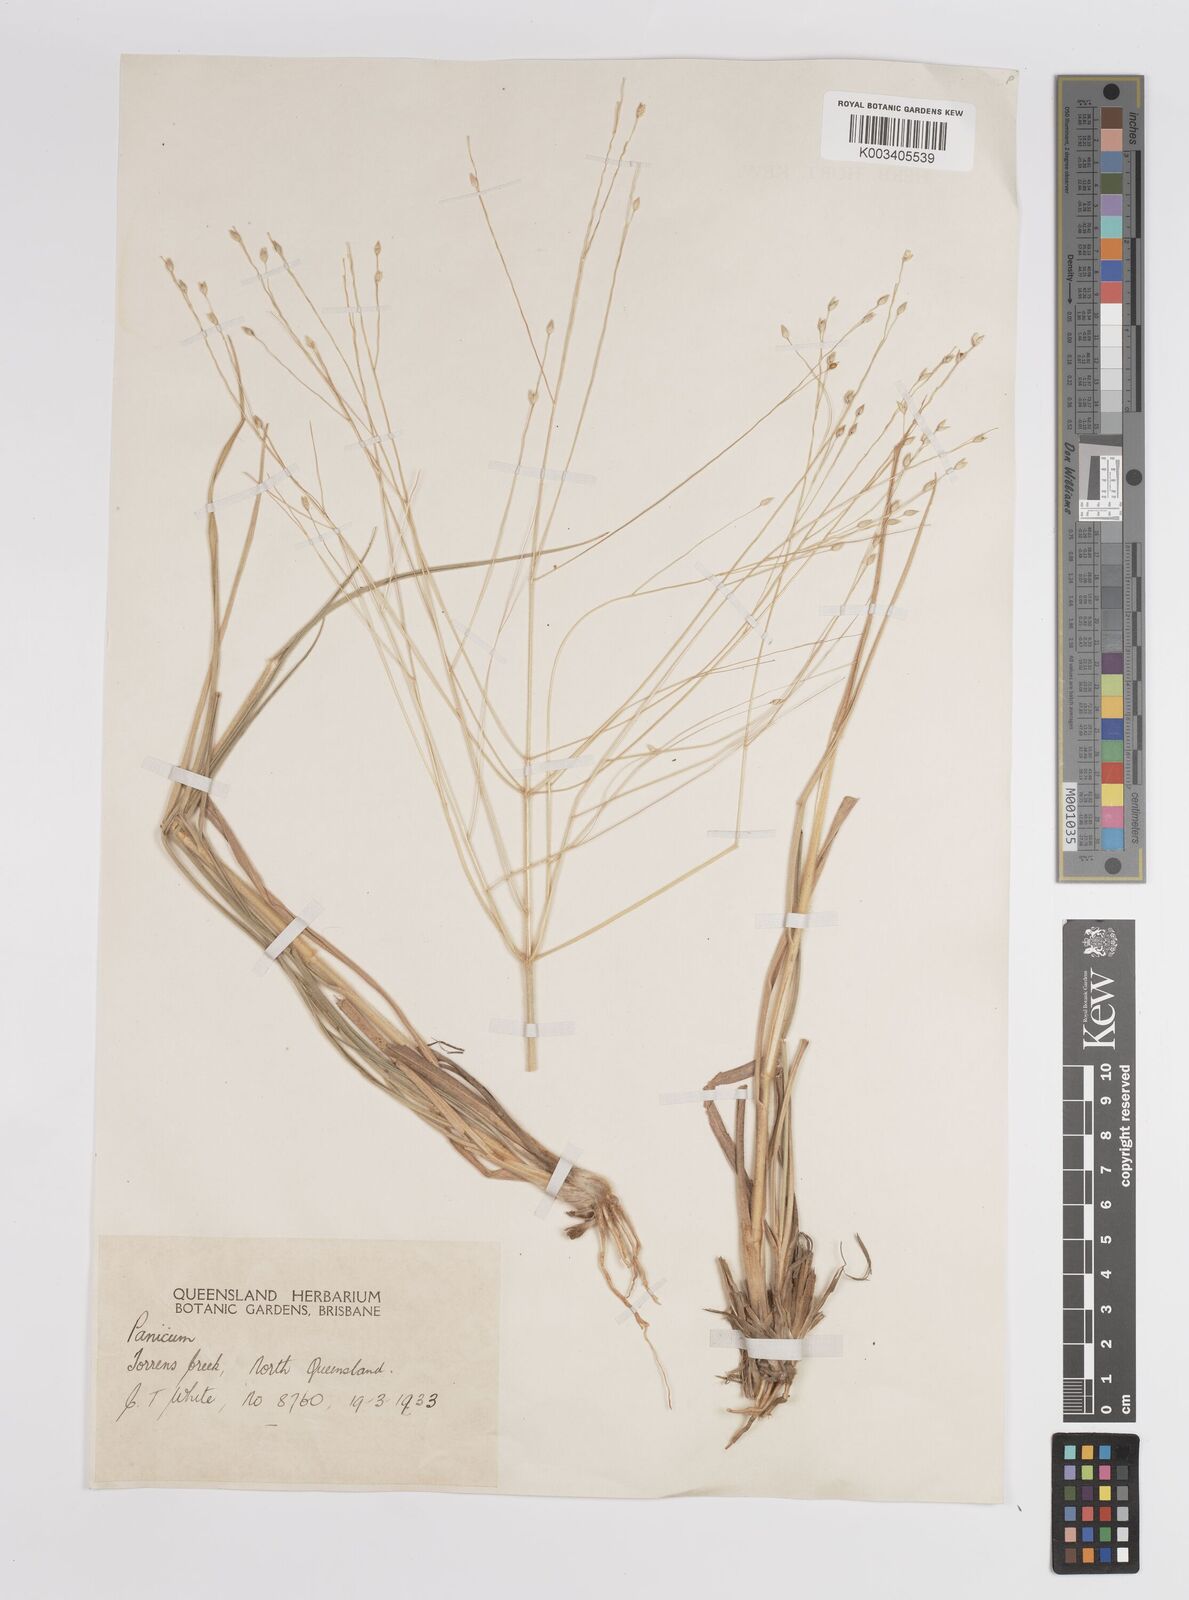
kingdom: Plantae
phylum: Tracheophyta
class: Liliopsida
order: Poales
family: Poaceae
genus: Panicum
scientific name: Panicum
